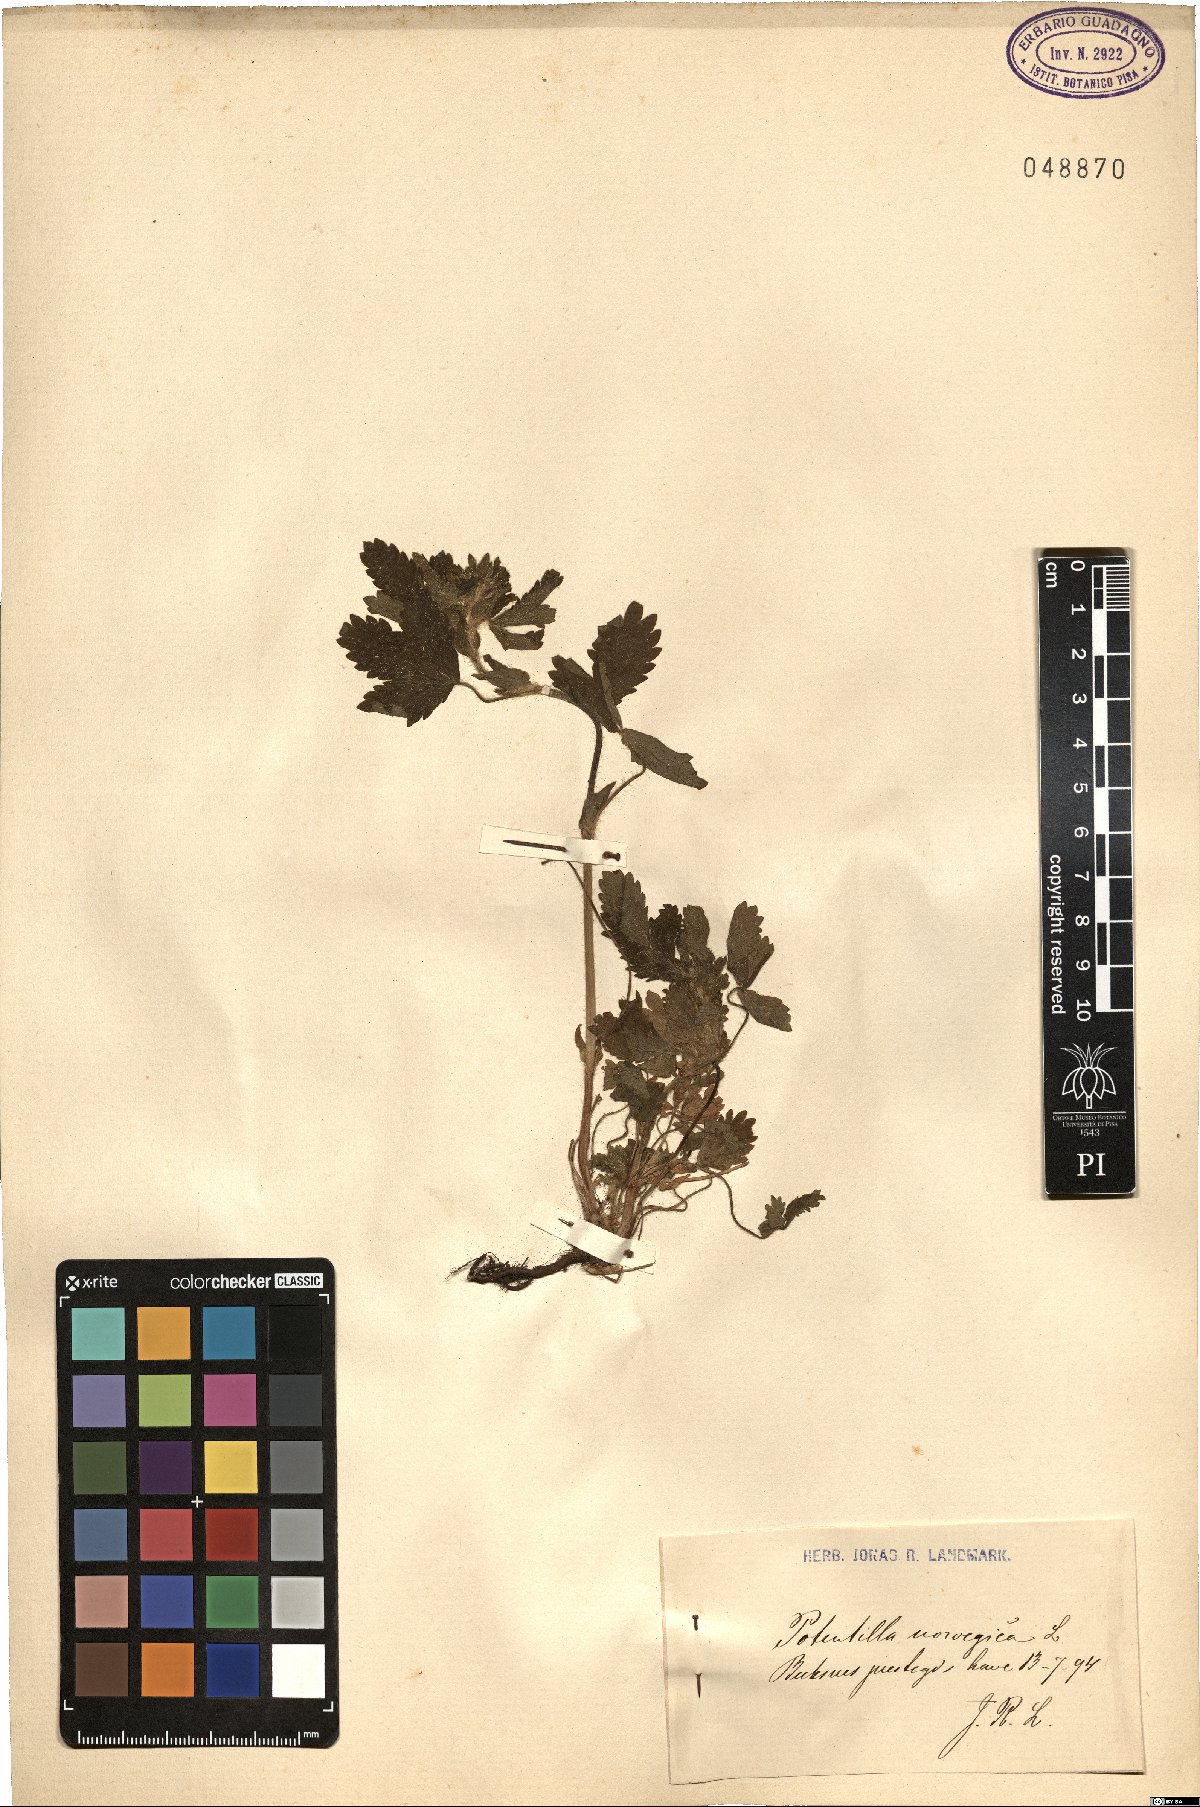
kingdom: Plantae
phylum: Tracheophyta
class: Magnoliopsida
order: Rosales
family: Rosaceae
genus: Potentilla
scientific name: Potentilla norvegica
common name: Ternate-leaved cinquefoil
